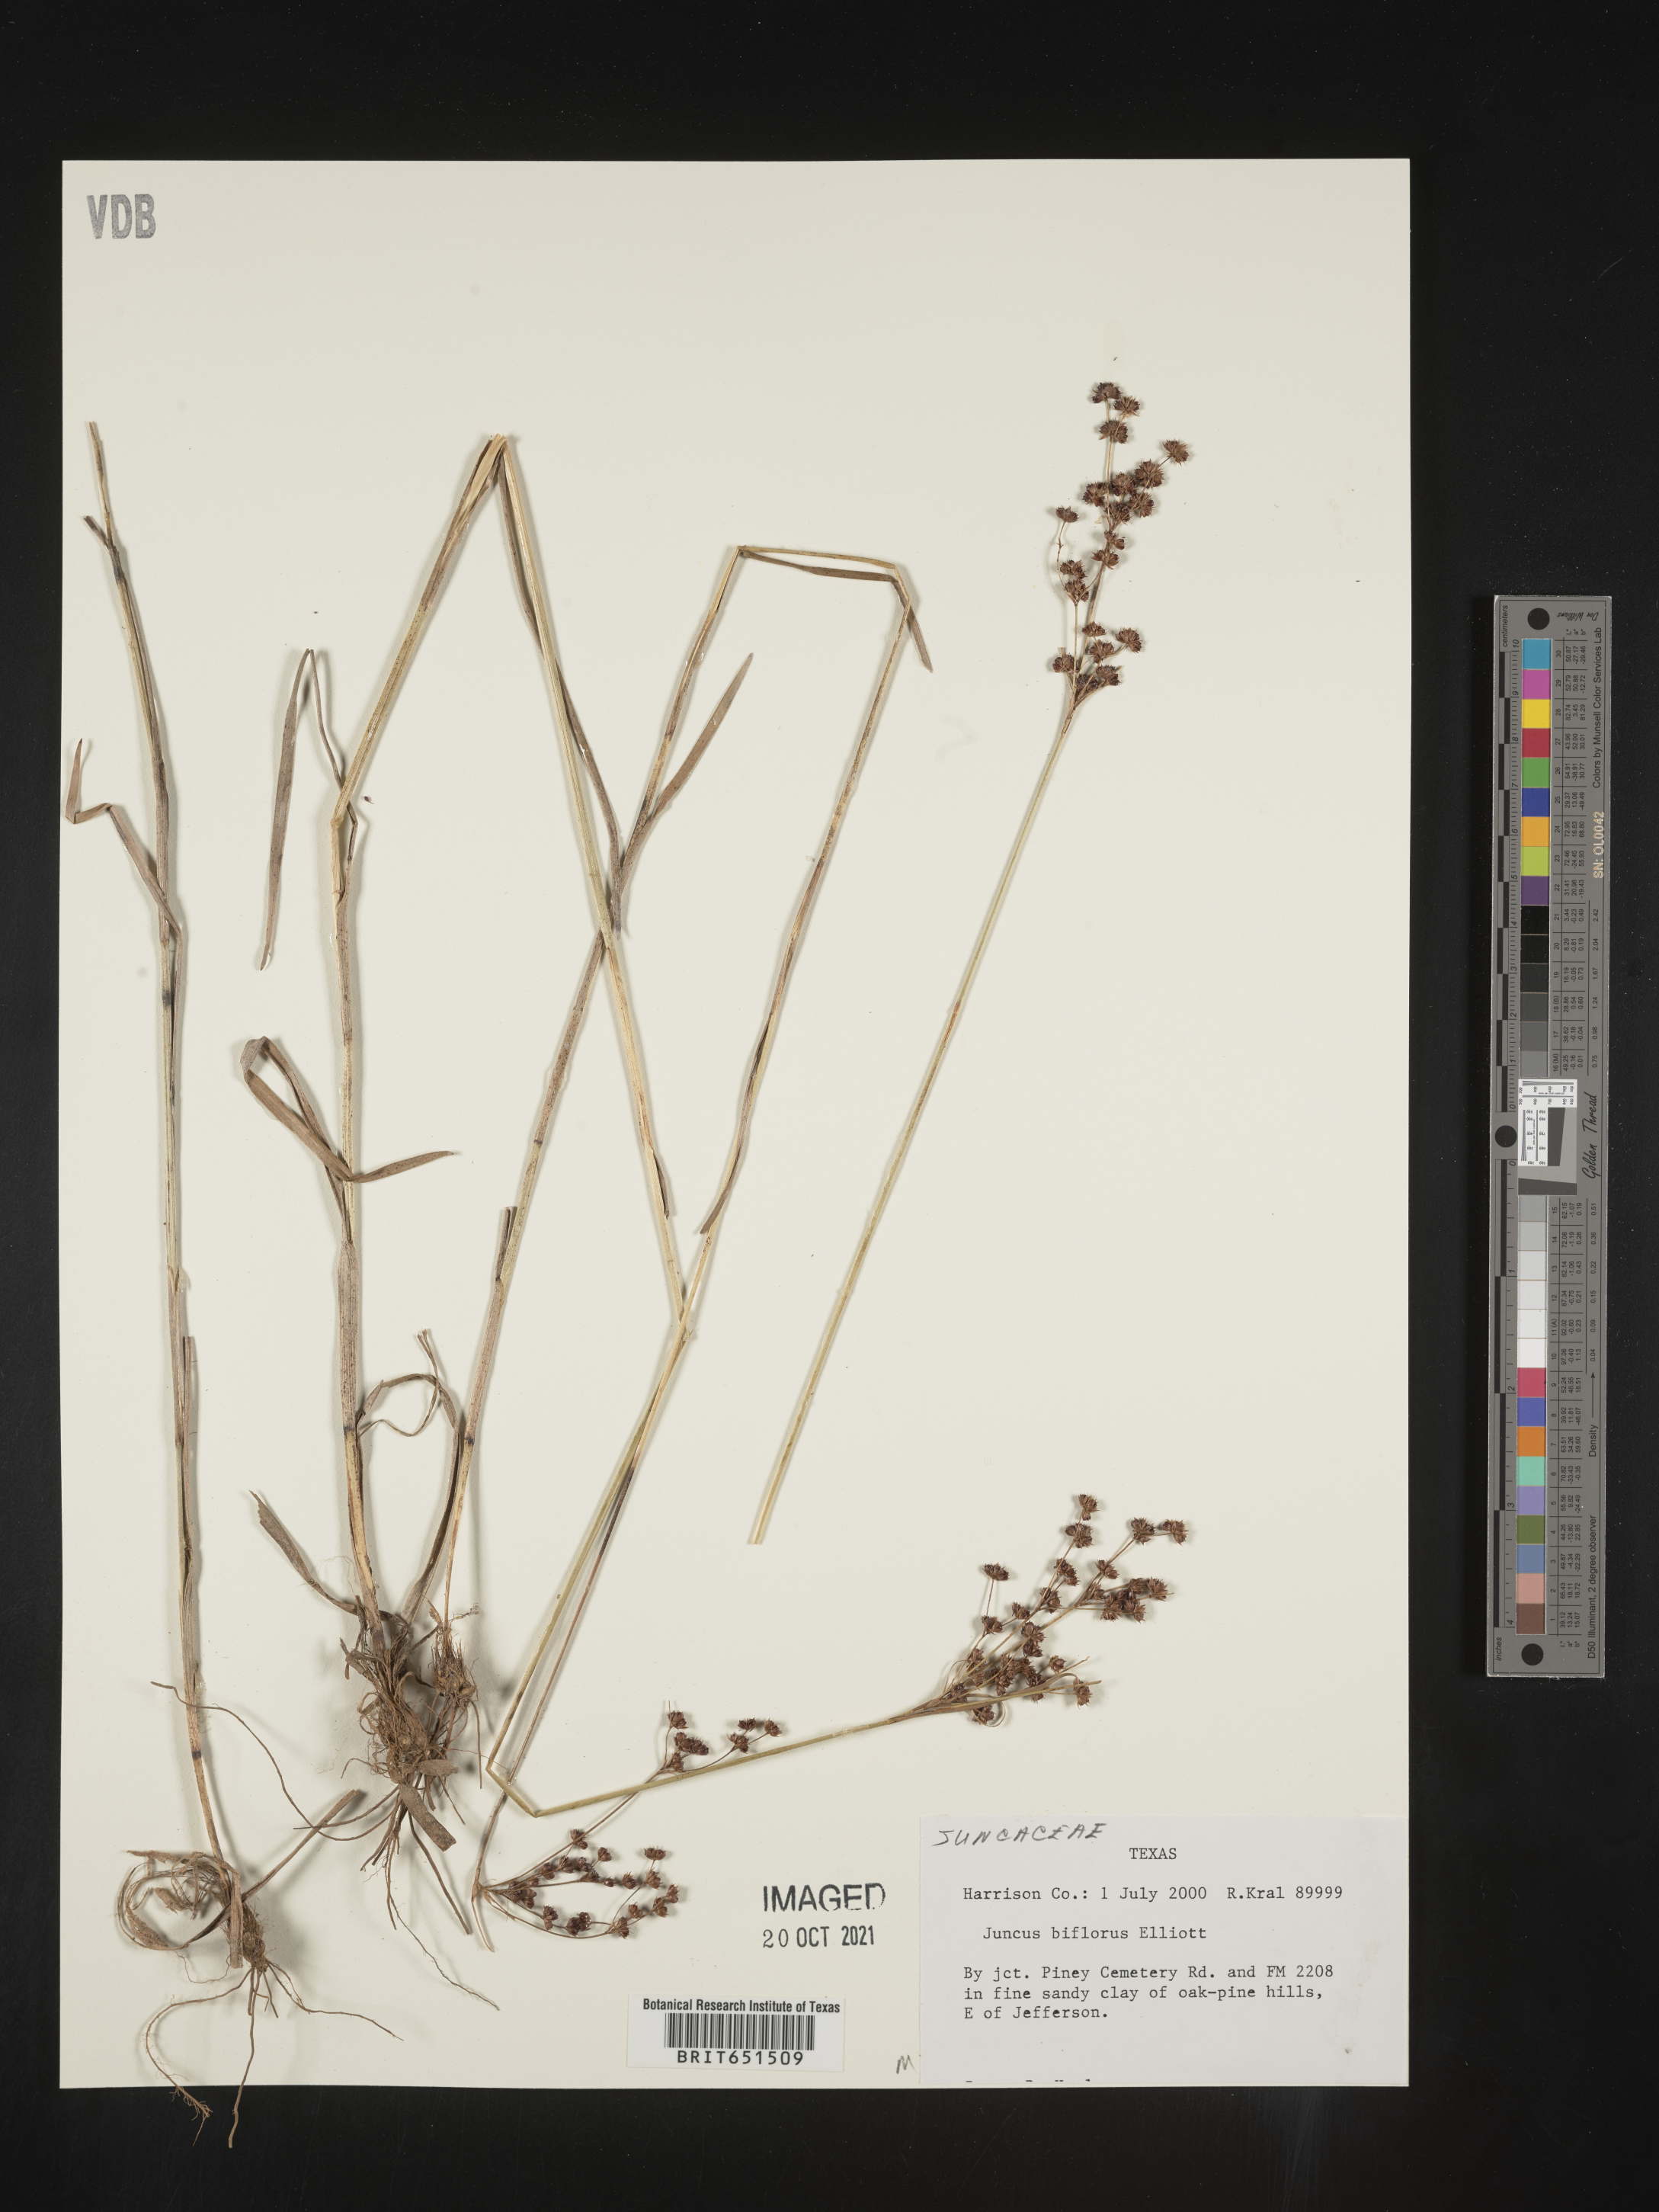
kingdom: Plantae
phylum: Tracheophyta
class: Liliopsida
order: Poales
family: Juncaceae
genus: Juncus
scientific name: Juncus biflorus
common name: Two-flowered rush
